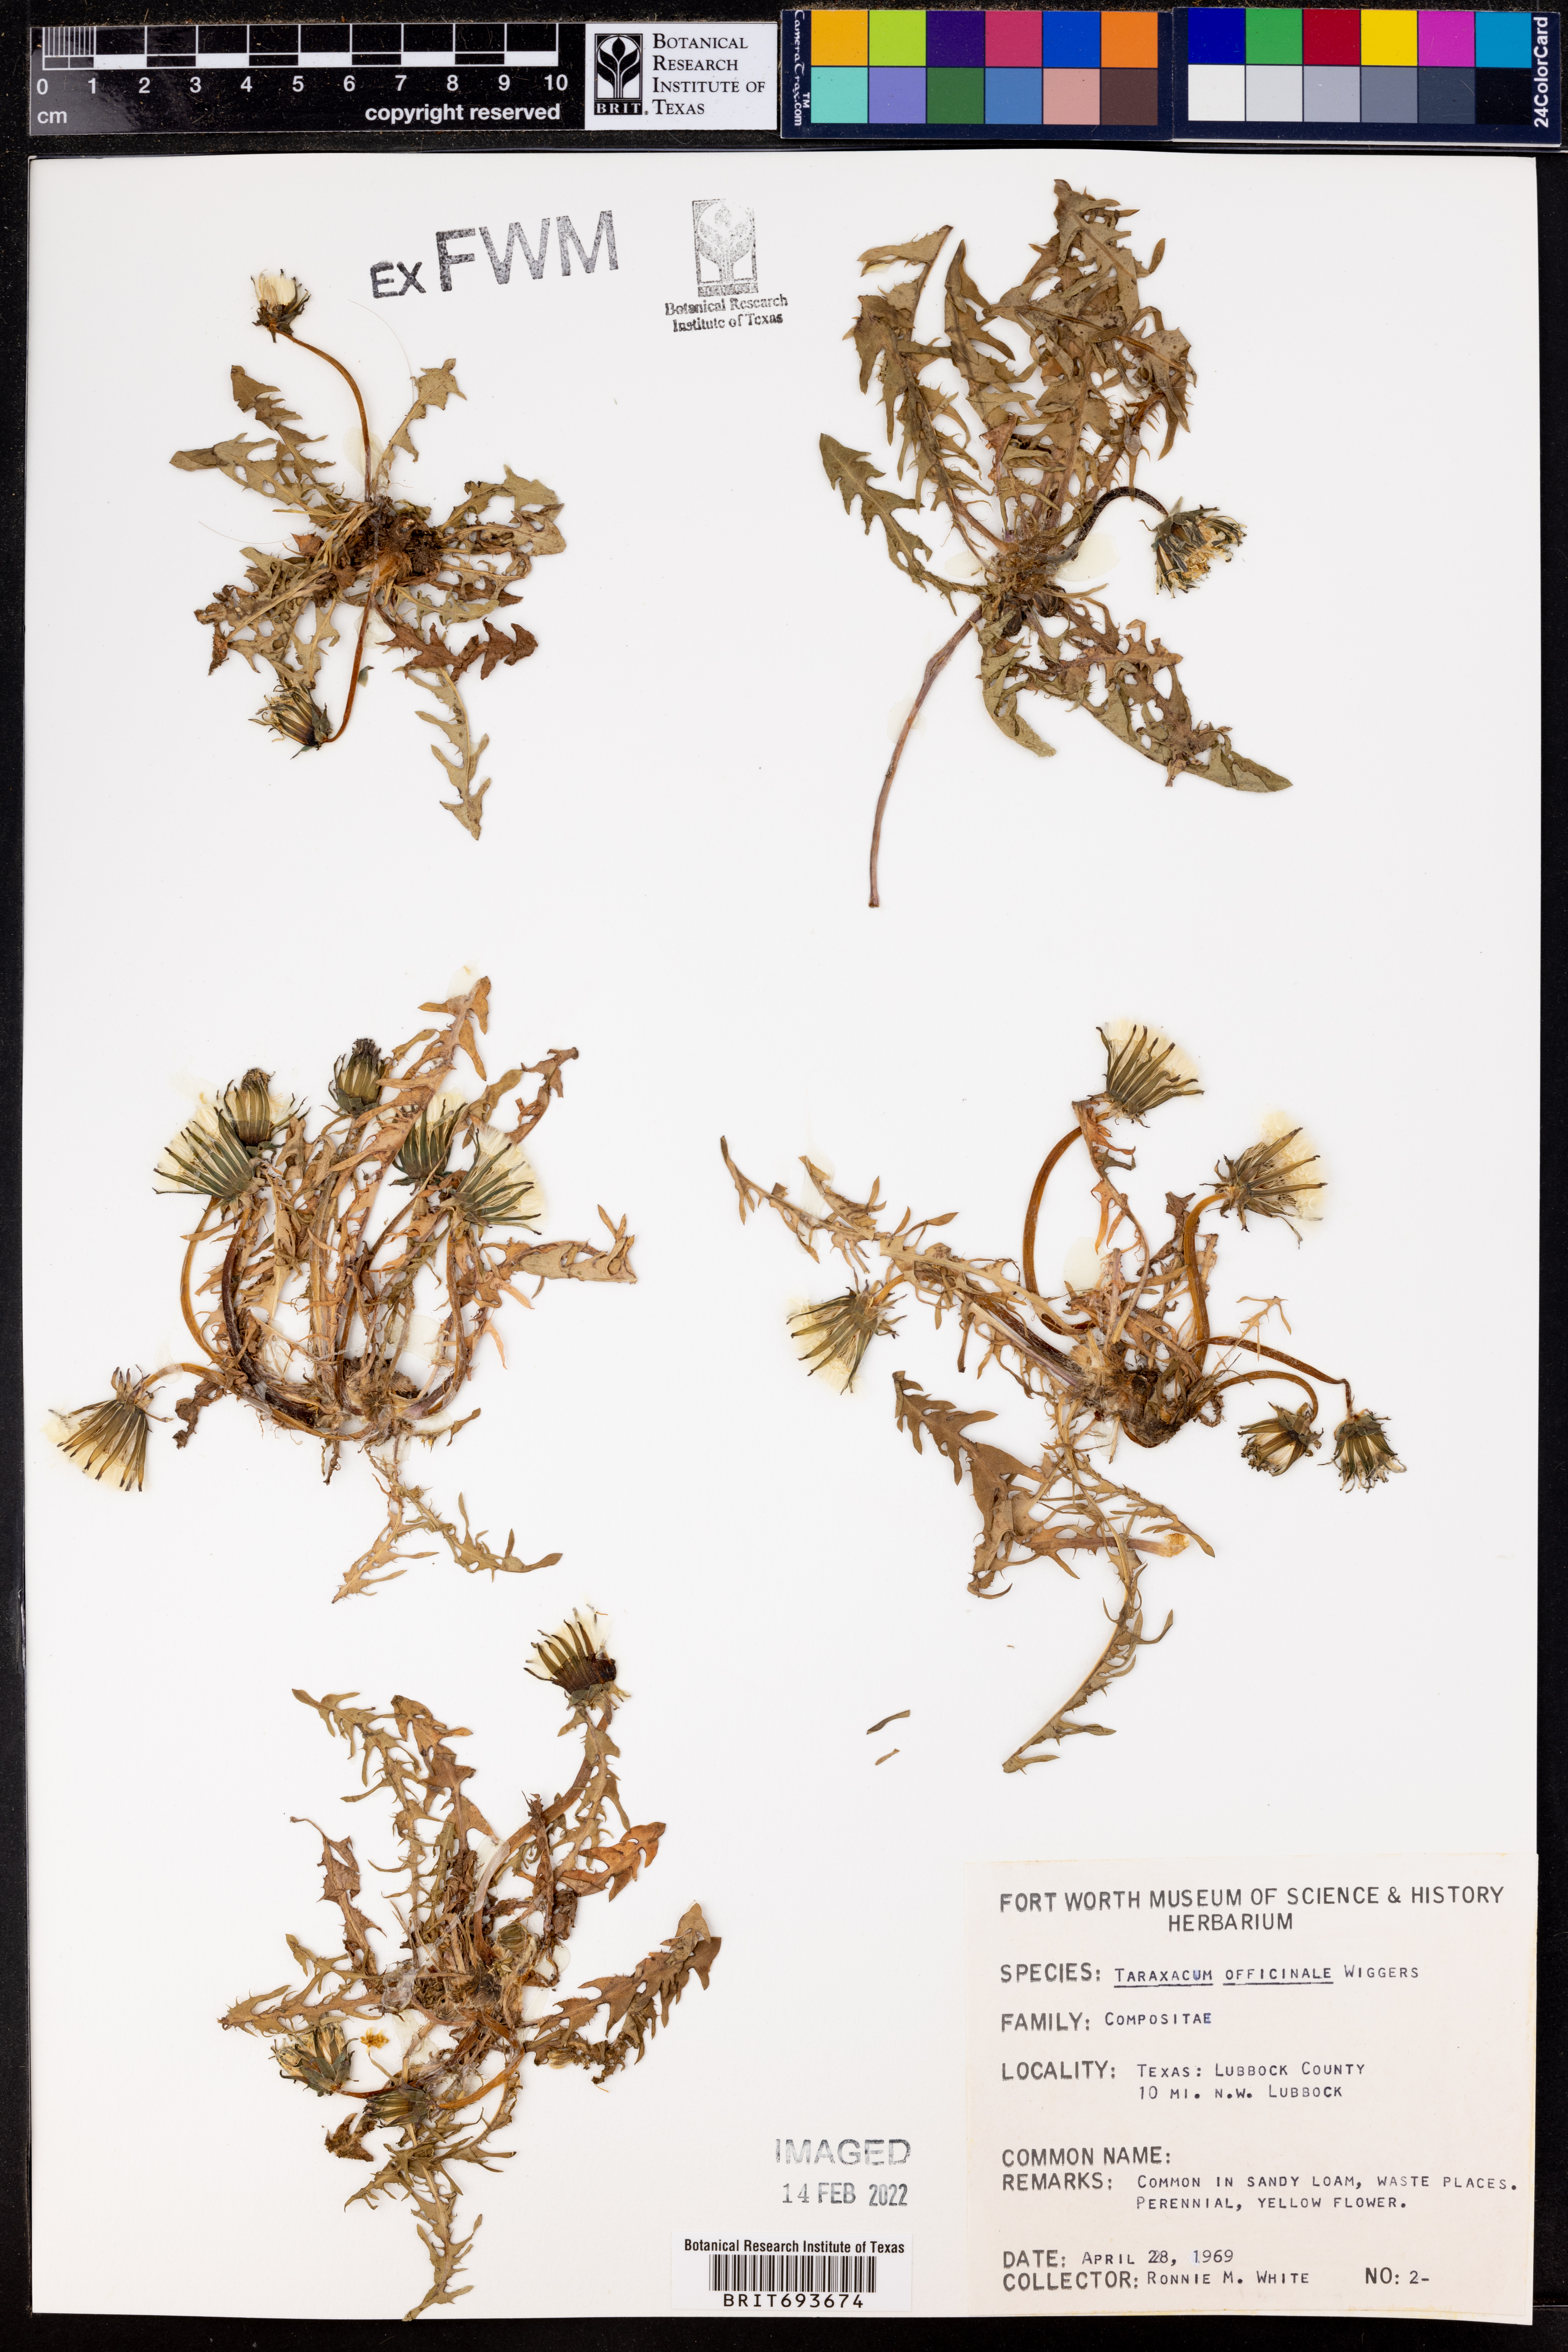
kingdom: Plantae
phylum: Tracheophyta
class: Magnoliopsida
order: Asterales
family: Asteraceae
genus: Taraxacum
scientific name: Taraxacum officinale
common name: Common dandelion
